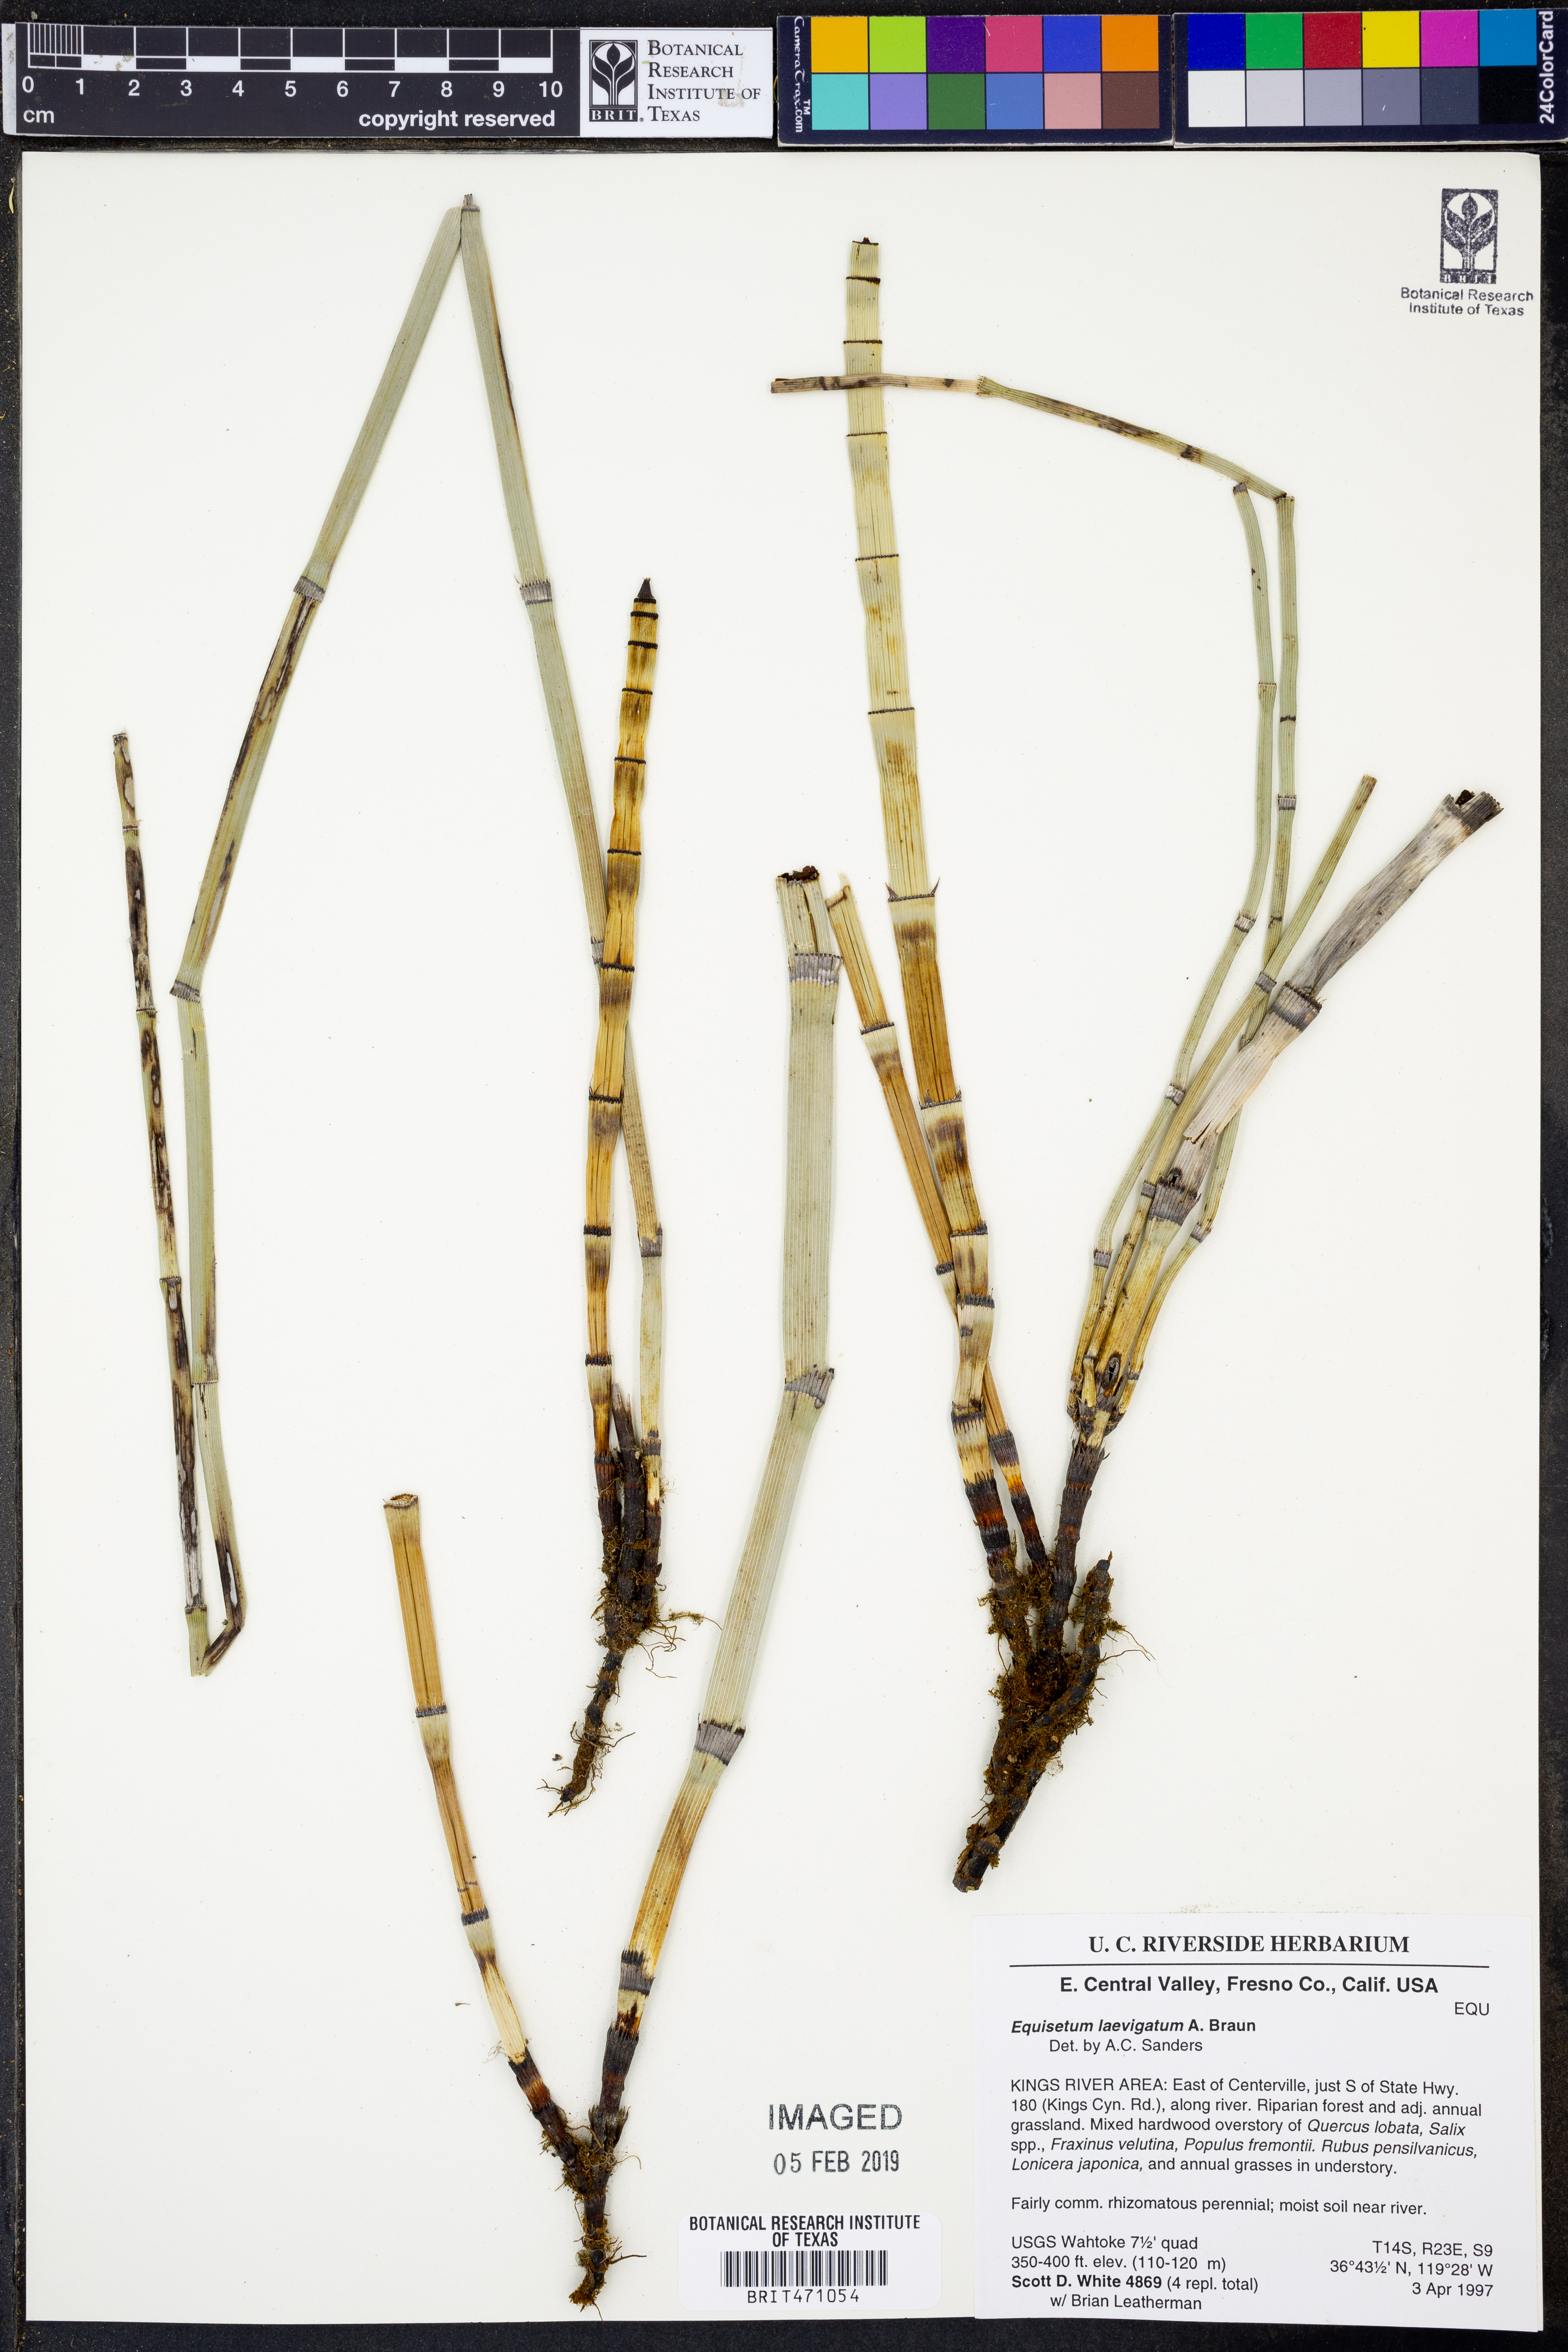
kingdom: Plantae
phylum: Tracheophyta
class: Polypodiopsida
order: Equisetales
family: Equisetaceae
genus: Equisetum
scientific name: Equisetum laevigatum
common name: Smooth scouring-rush
